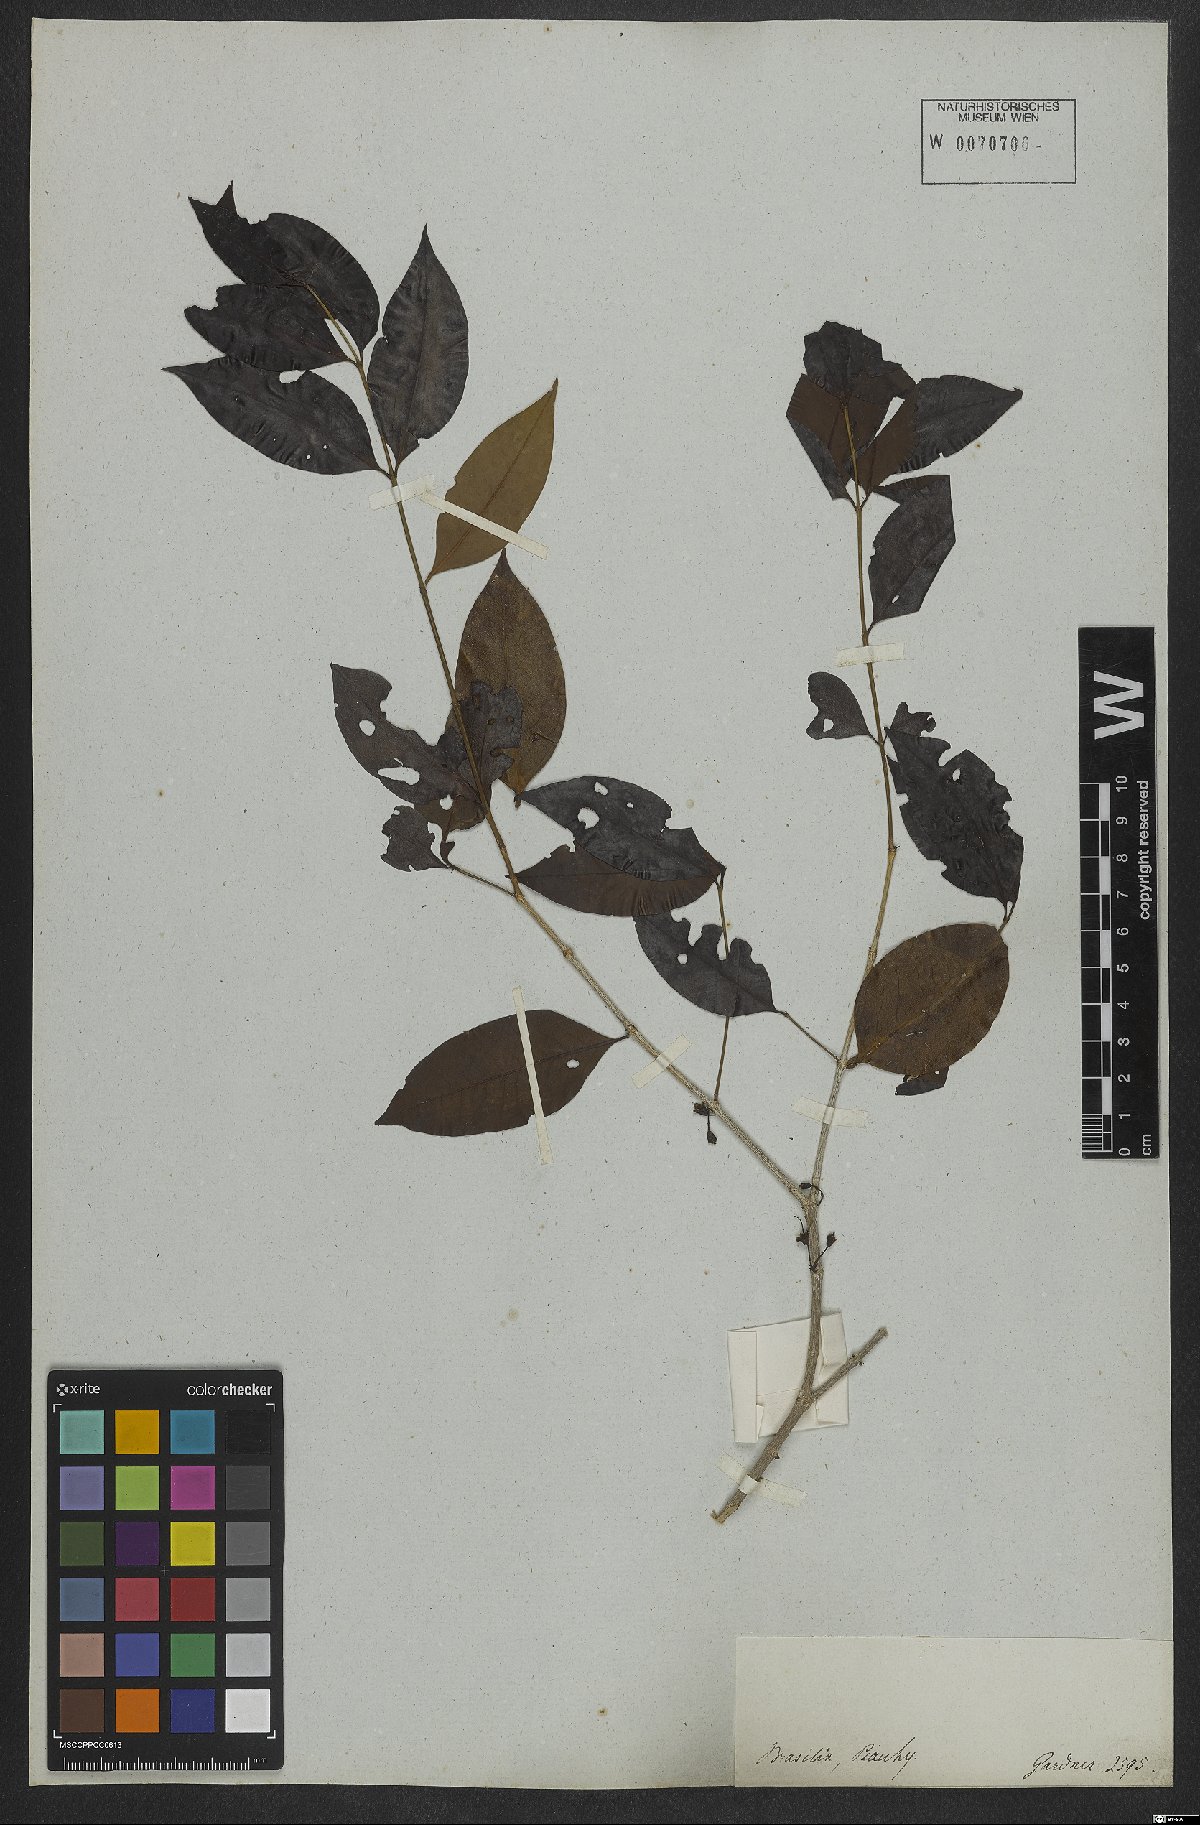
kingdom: Plantae
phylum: Tracheophyta
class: Magnoliopsida
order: Myrtales
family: Myrtaceae
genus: Eugenia
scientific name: Eugenia expansa
